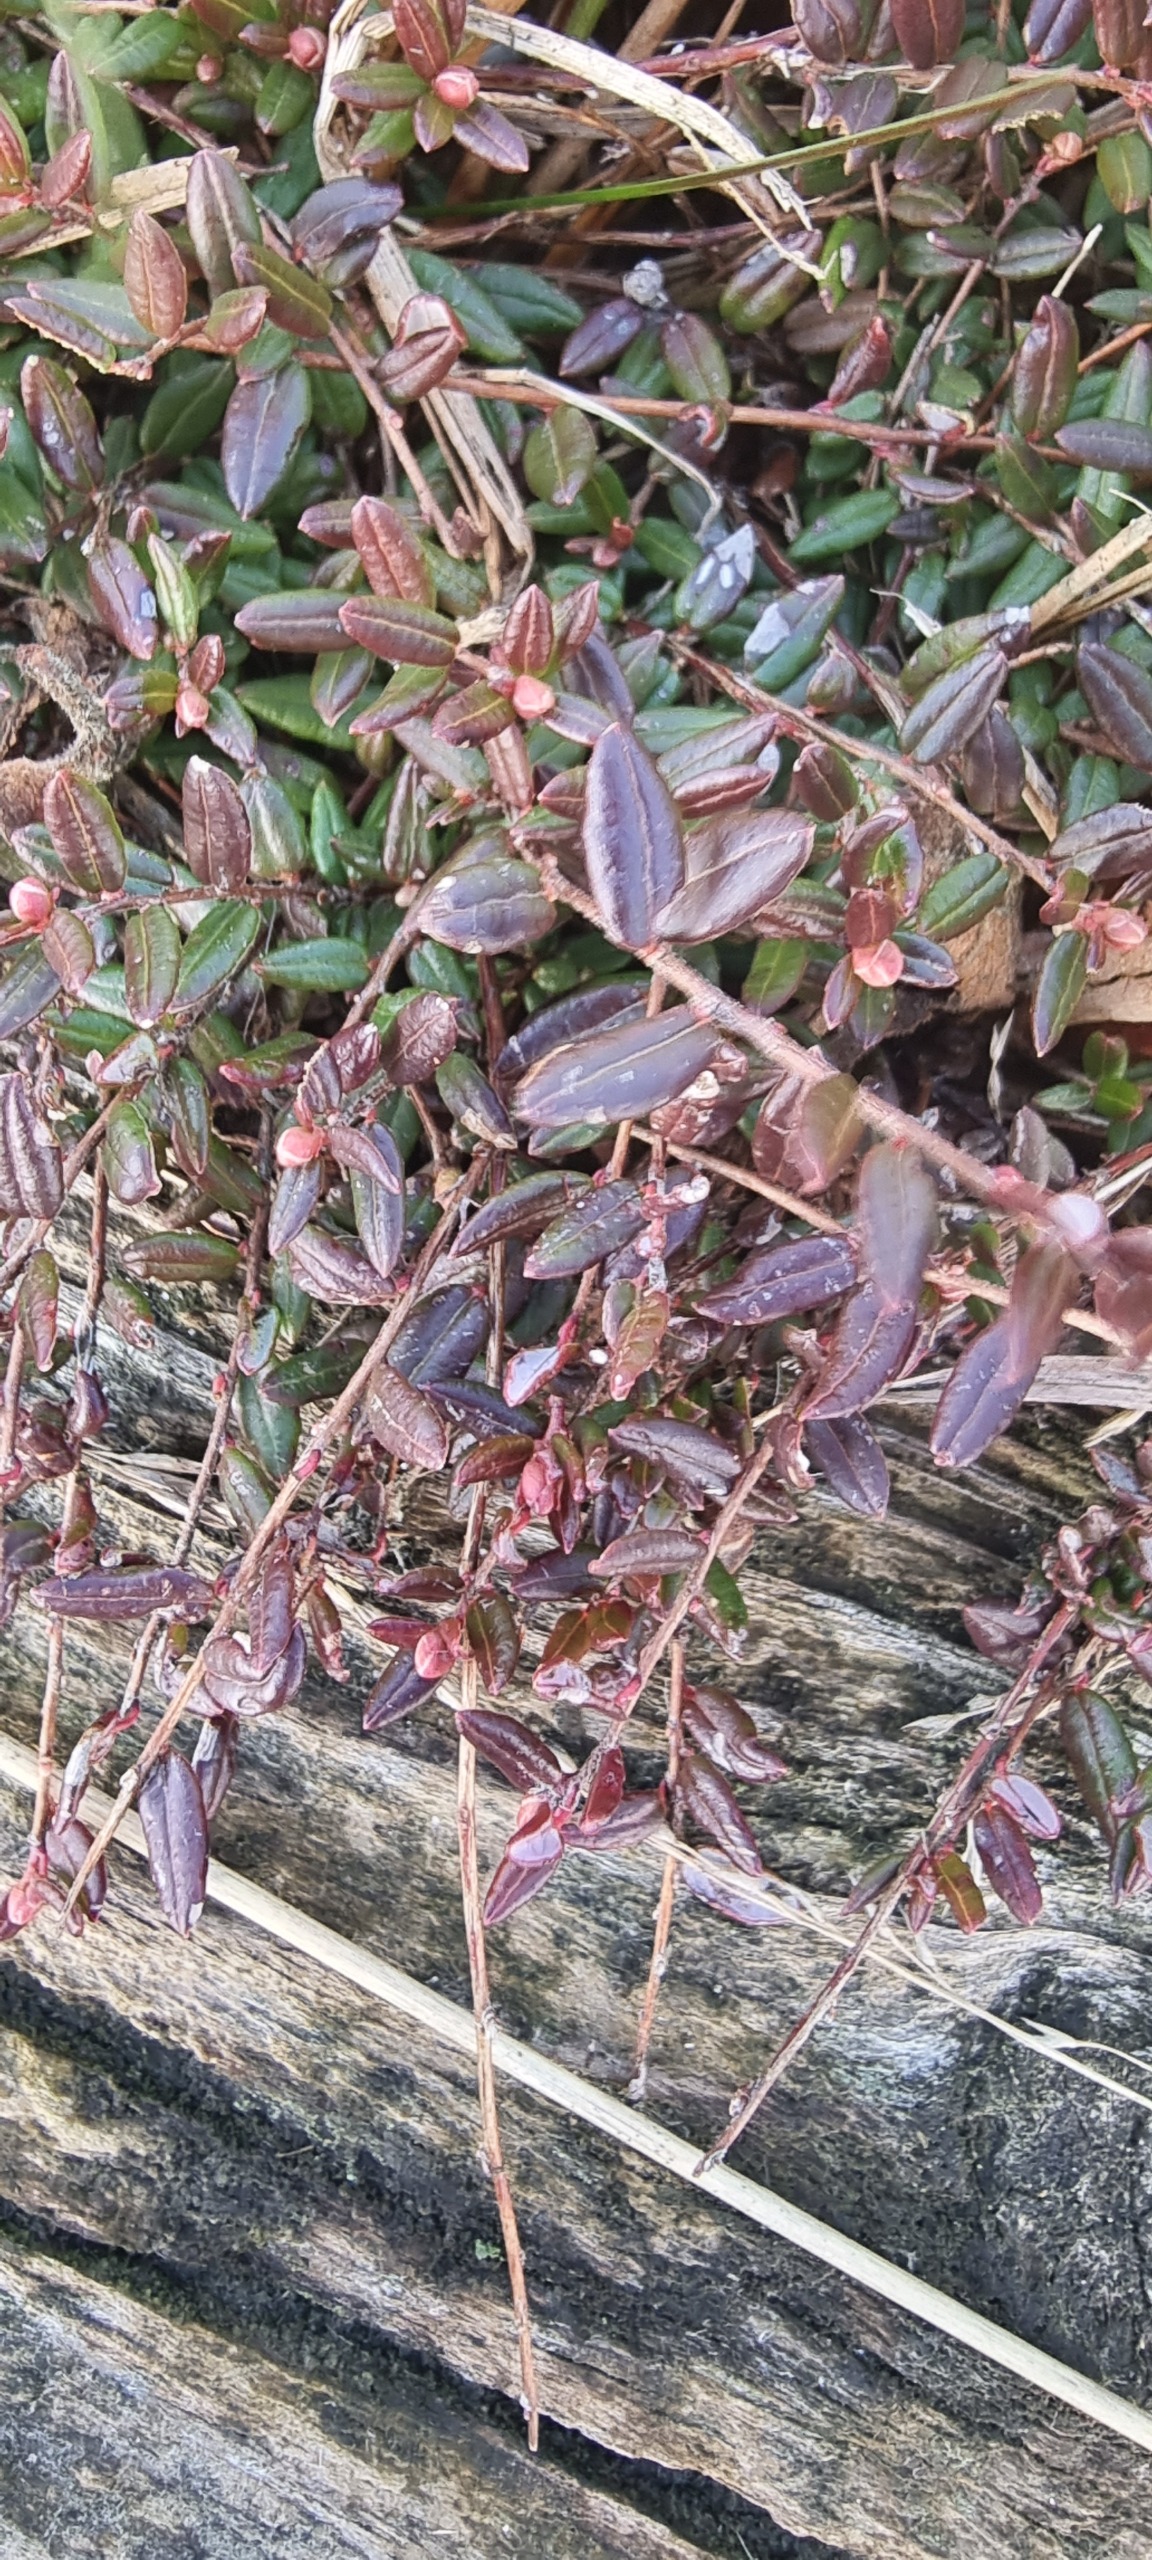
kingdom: Plantae
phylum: Tracheophyta
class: Magnoliopsida
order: Ericales
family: Ericaceae
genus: Vaccinium
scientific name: Vaccinium oxycoccos
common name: Tranebær
